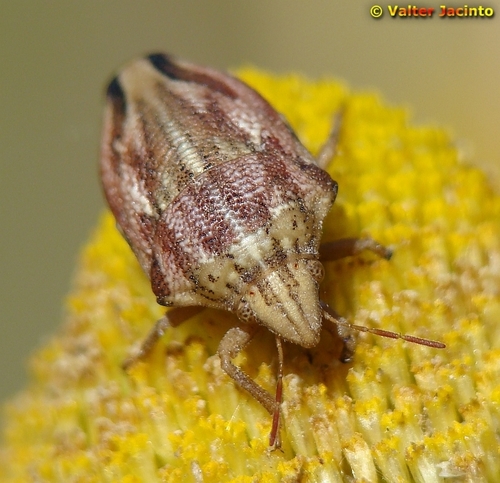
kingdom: Animalia
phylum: Arthropoda
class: Insecta
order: Hemiptera
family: Scutelleridae
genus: Odontotarsus
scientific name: Odontotarsus purpureolineatus
